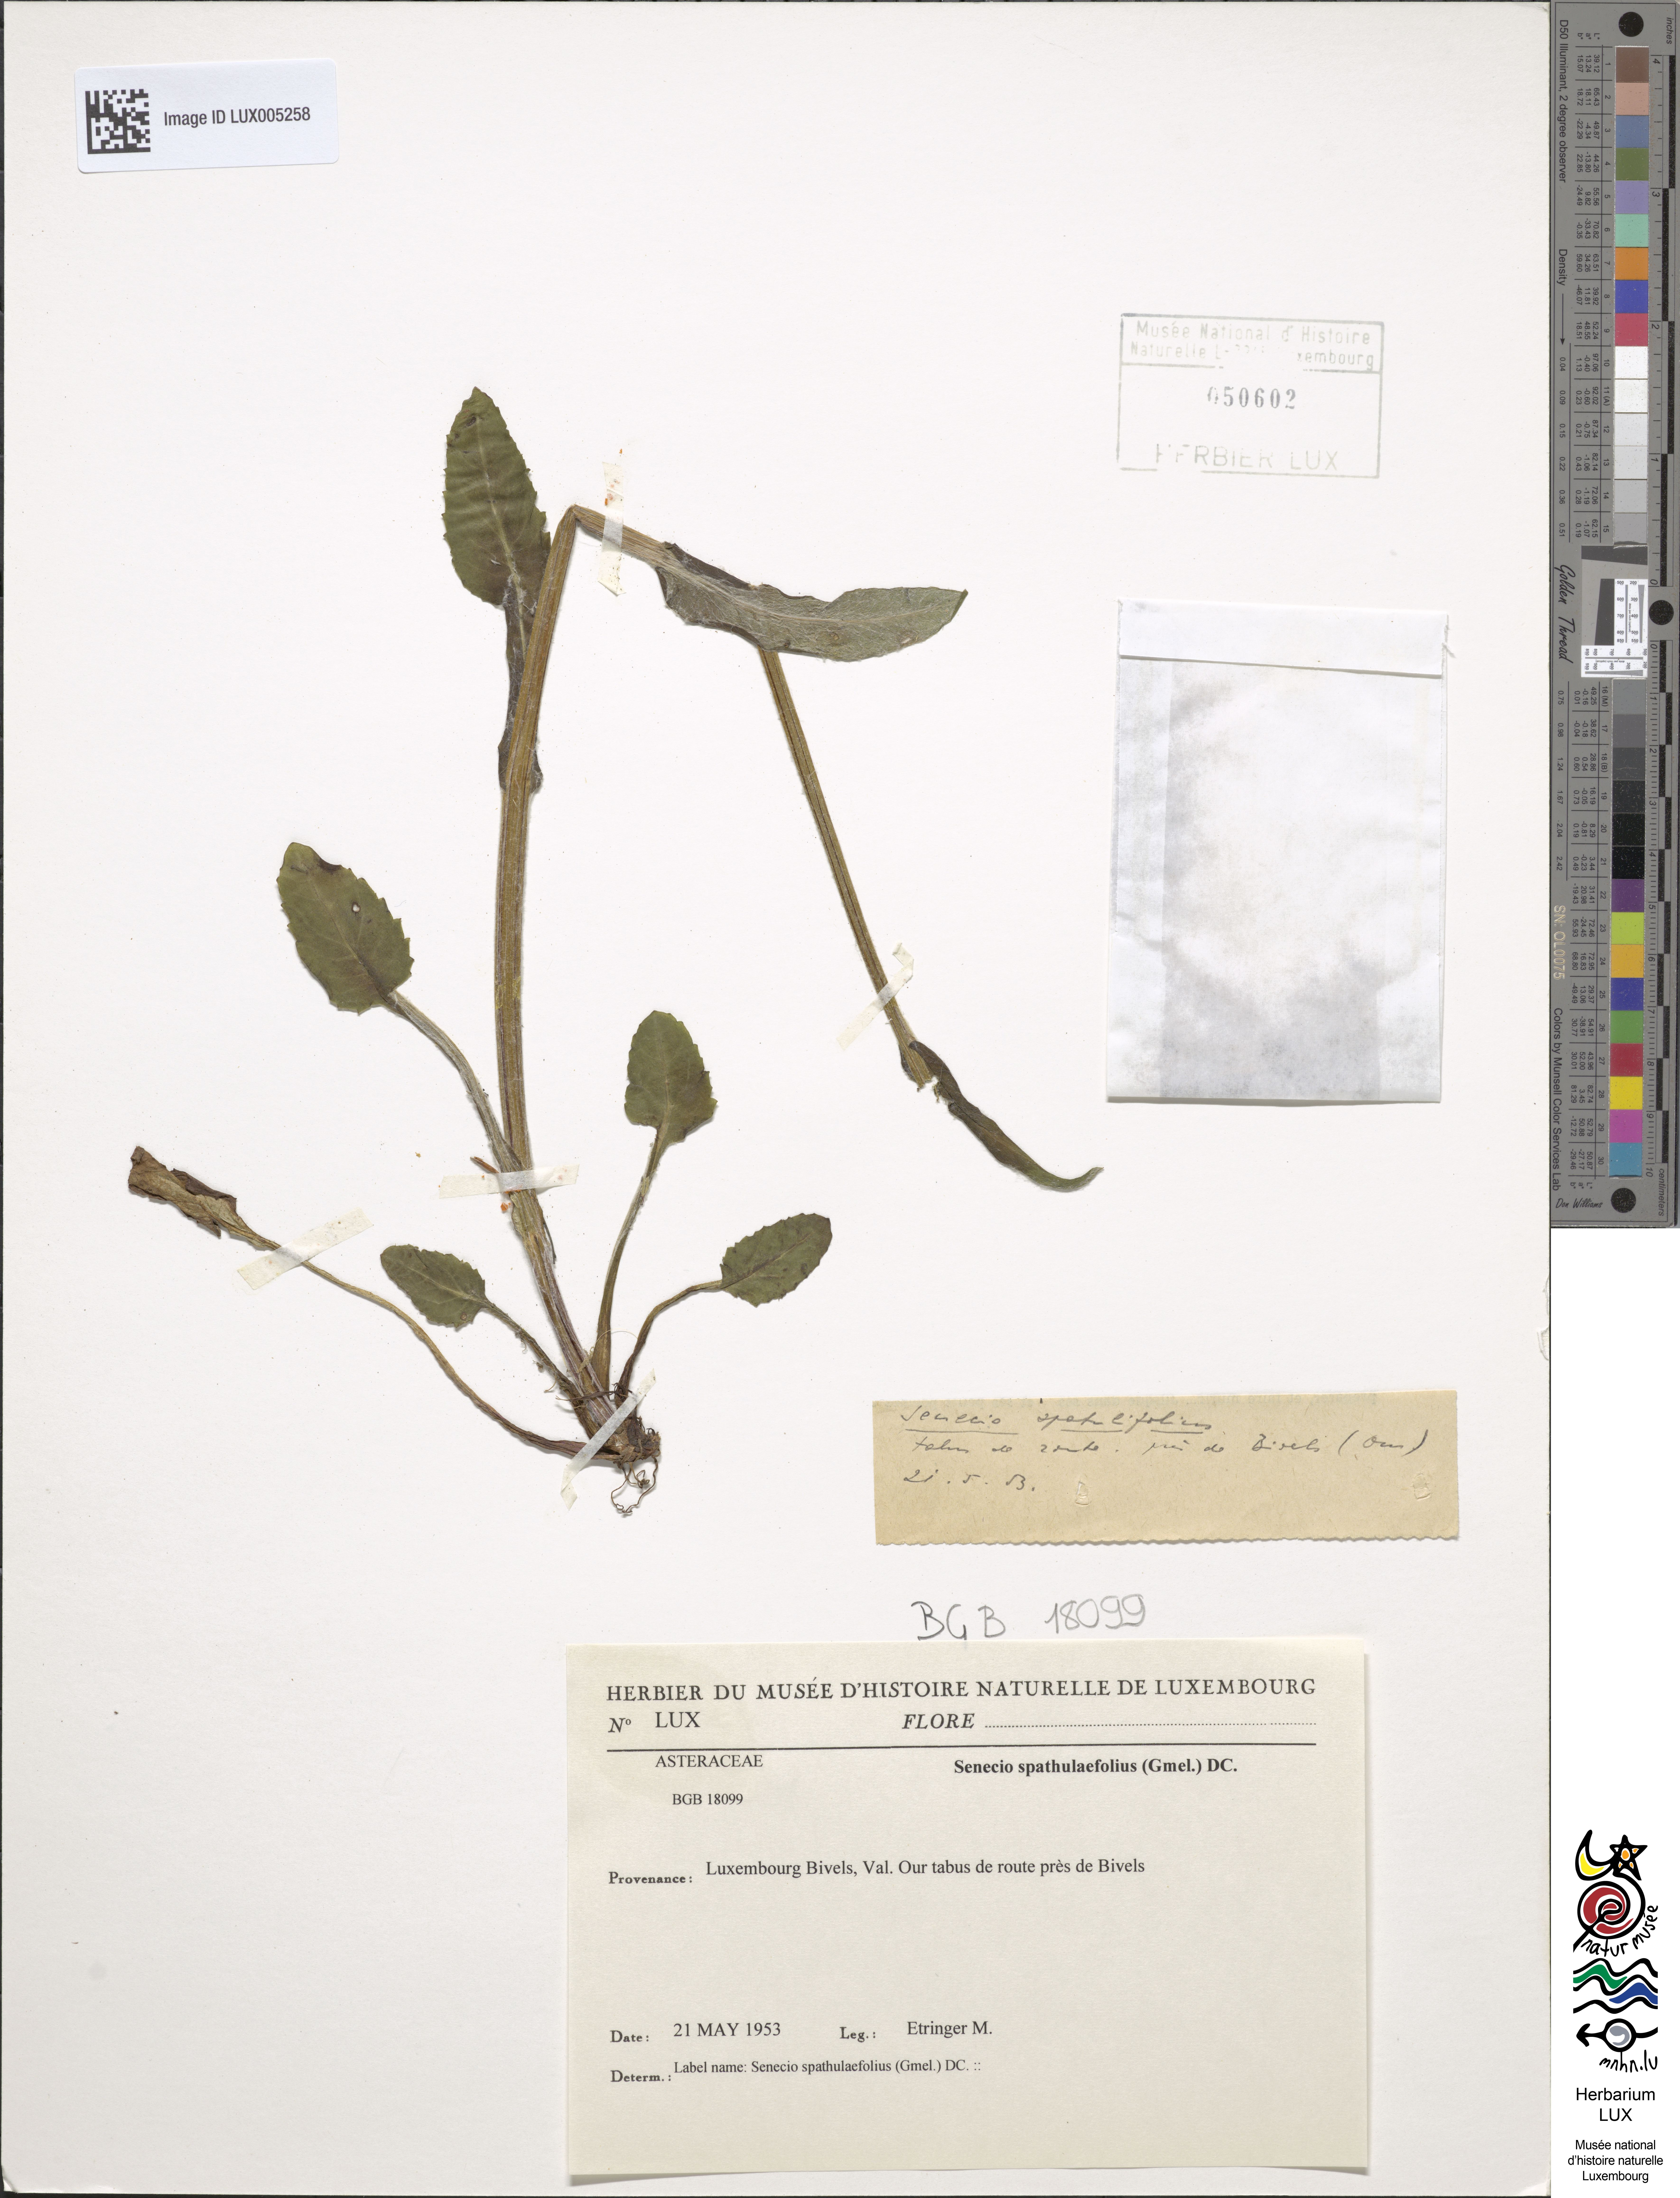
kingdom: Plantae
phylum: Tracheophyta
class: Magnoliopsida
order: Asterales
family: Asteraceae
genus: Senecio
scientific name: Senecio spathulaefolius
